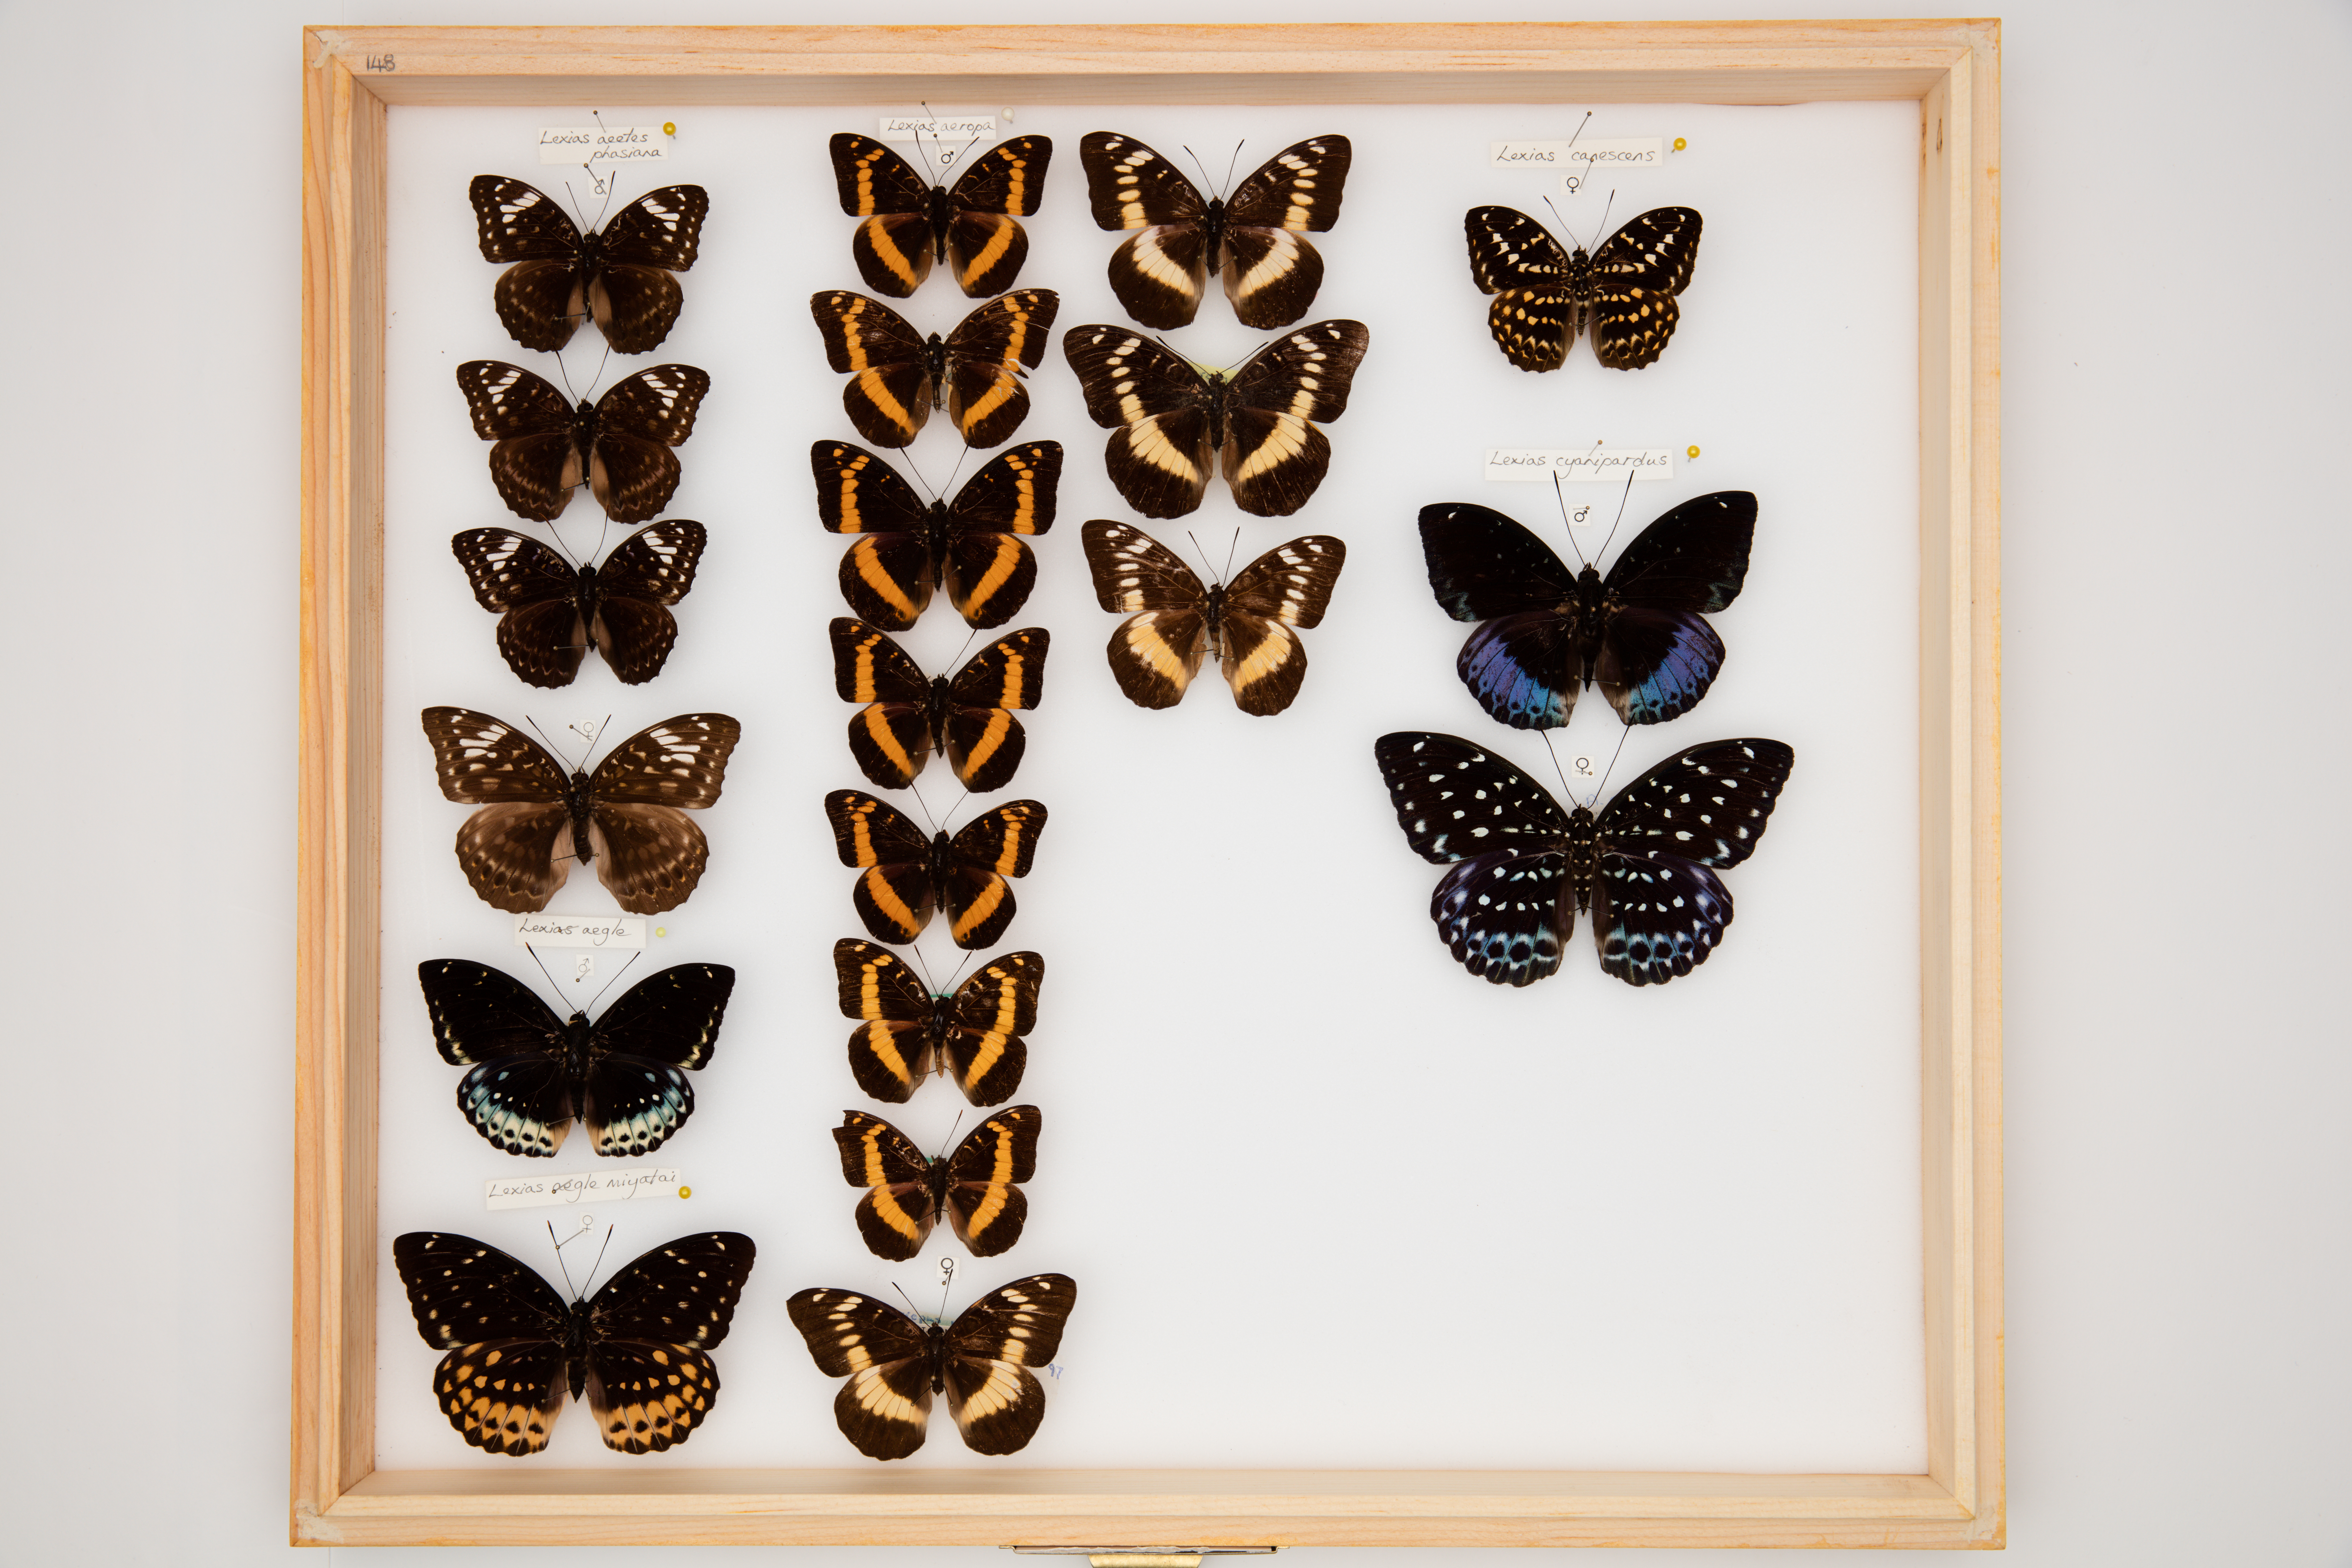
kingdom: Animalia
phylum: Arthropoda
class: Insecta
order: Lepidoptera
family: Nymphalidae
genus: Lexias
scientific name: Lexias aeetes
